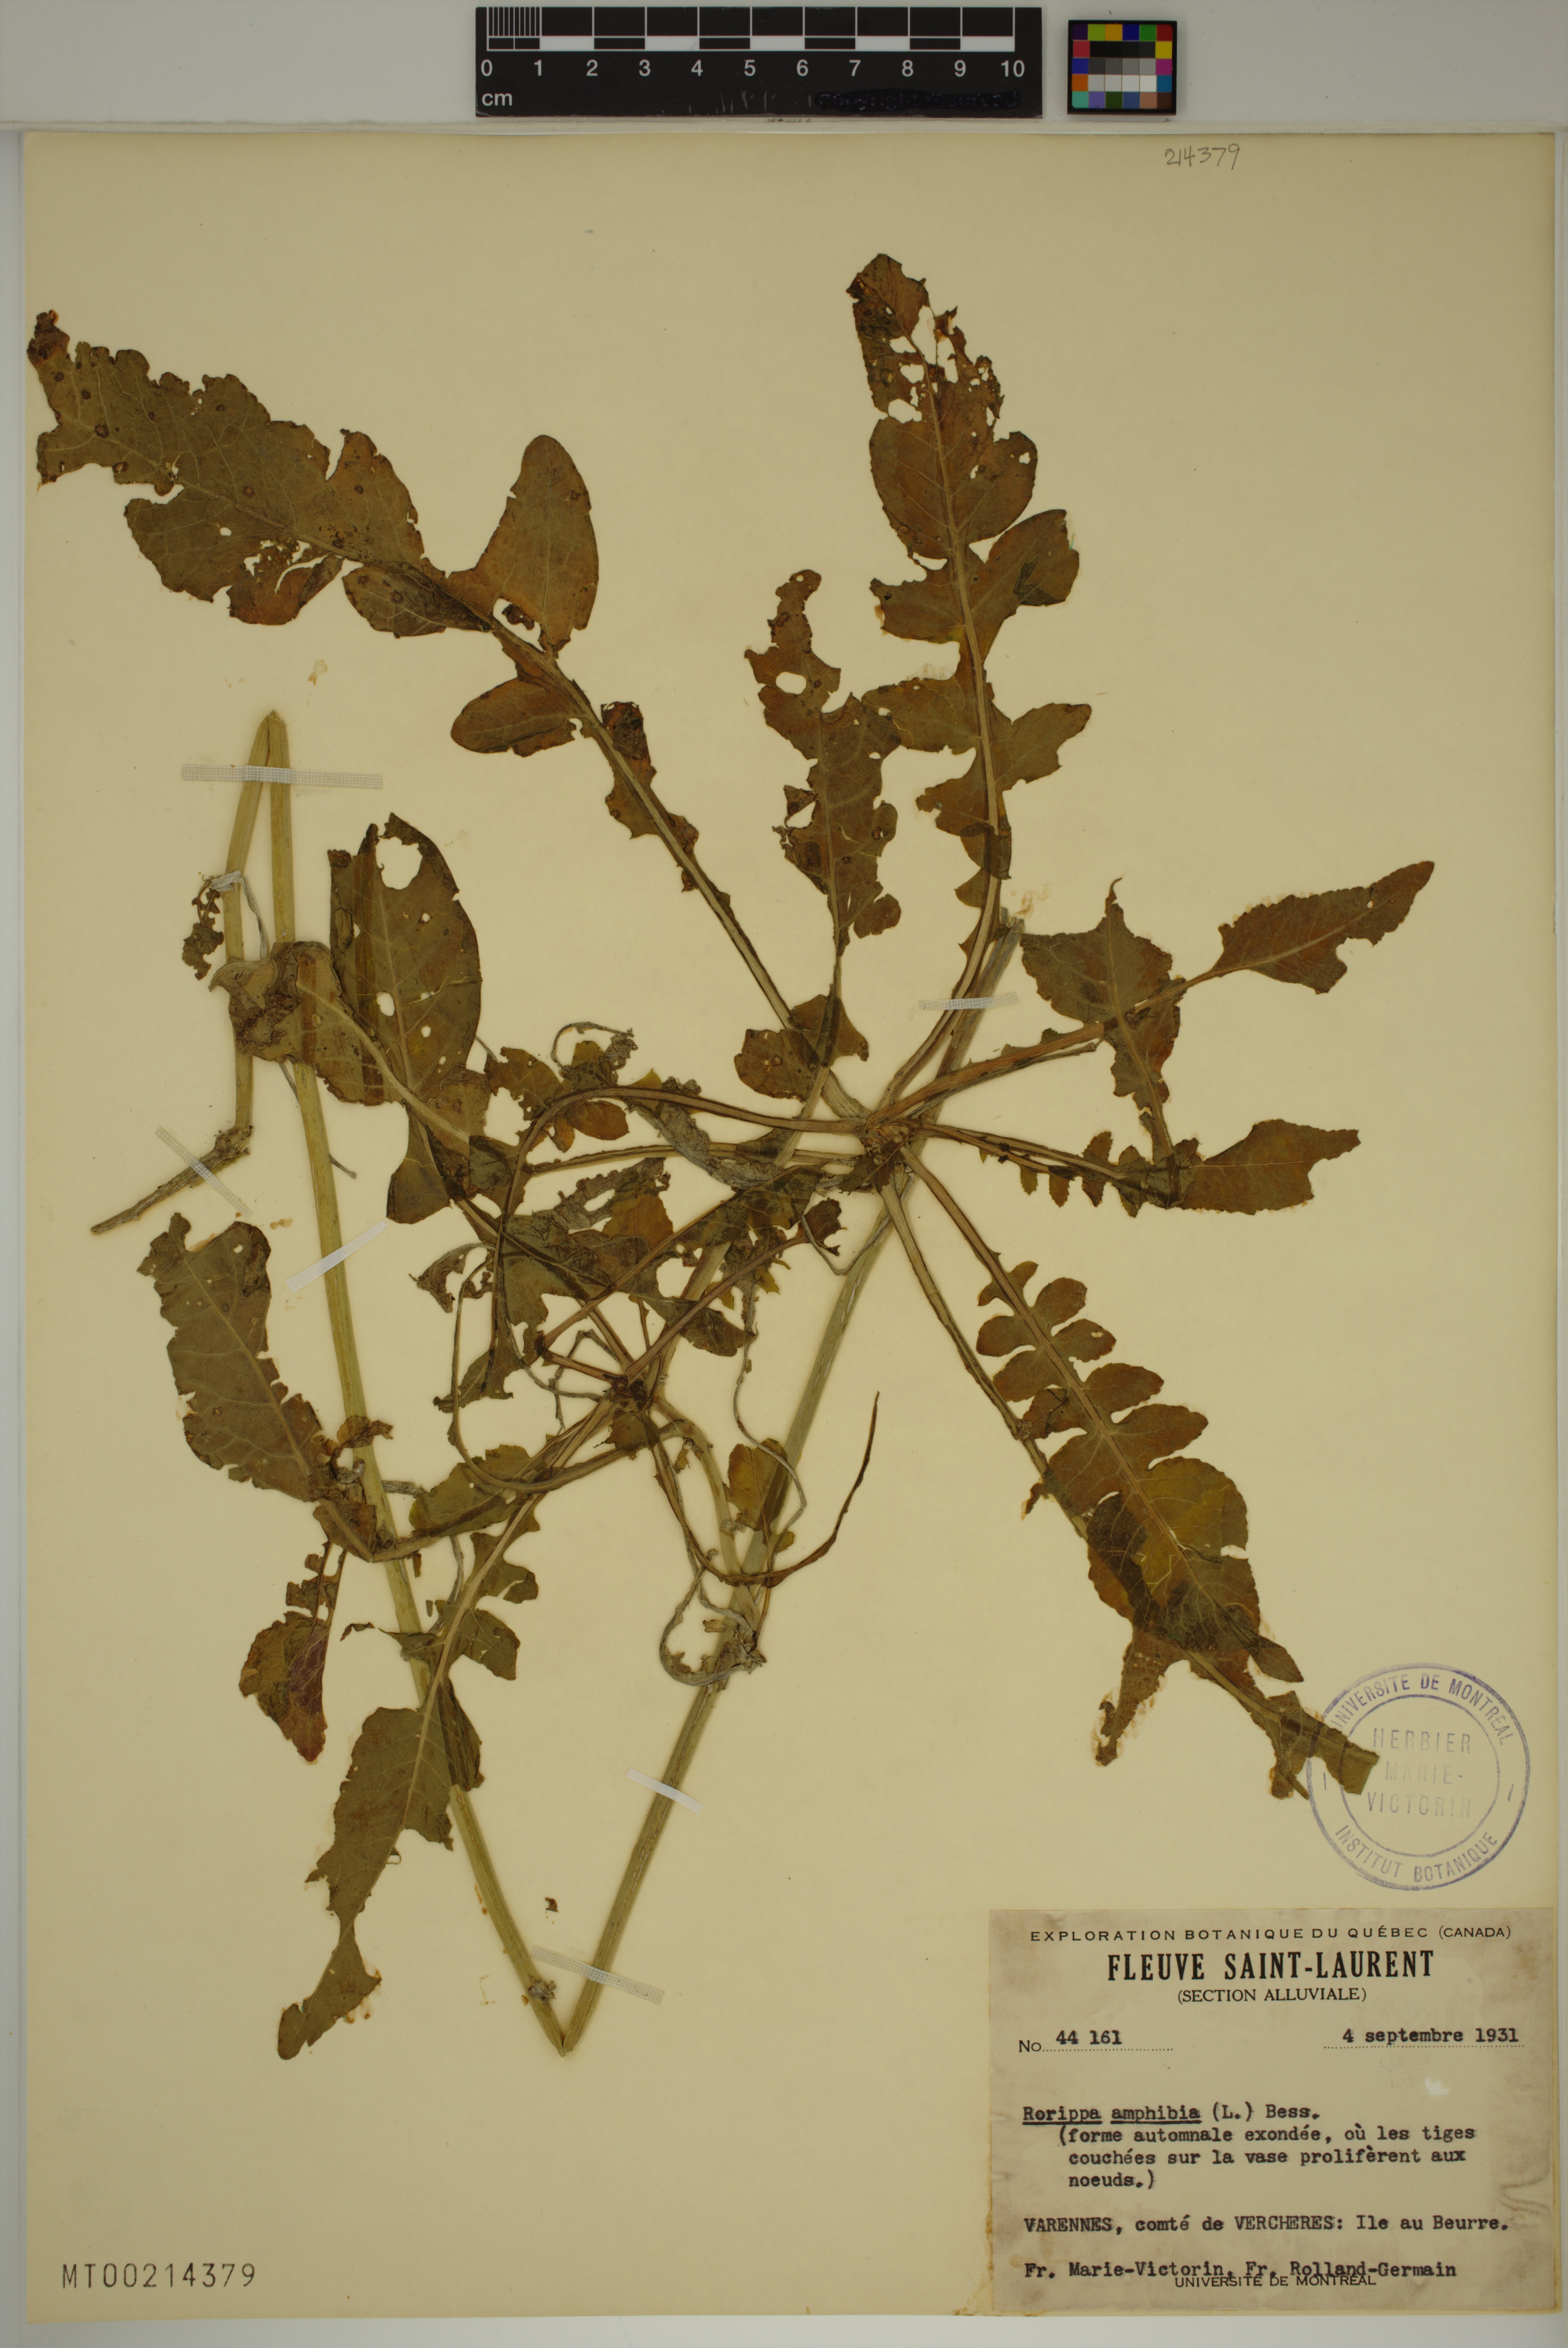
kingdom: Plantae
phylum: Tracheophyta
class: Magnoliopsida
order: Brassicales
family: Brassicaceae
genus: Rorippa
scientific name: Rorippa amphibia
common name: Great yellow-cress
